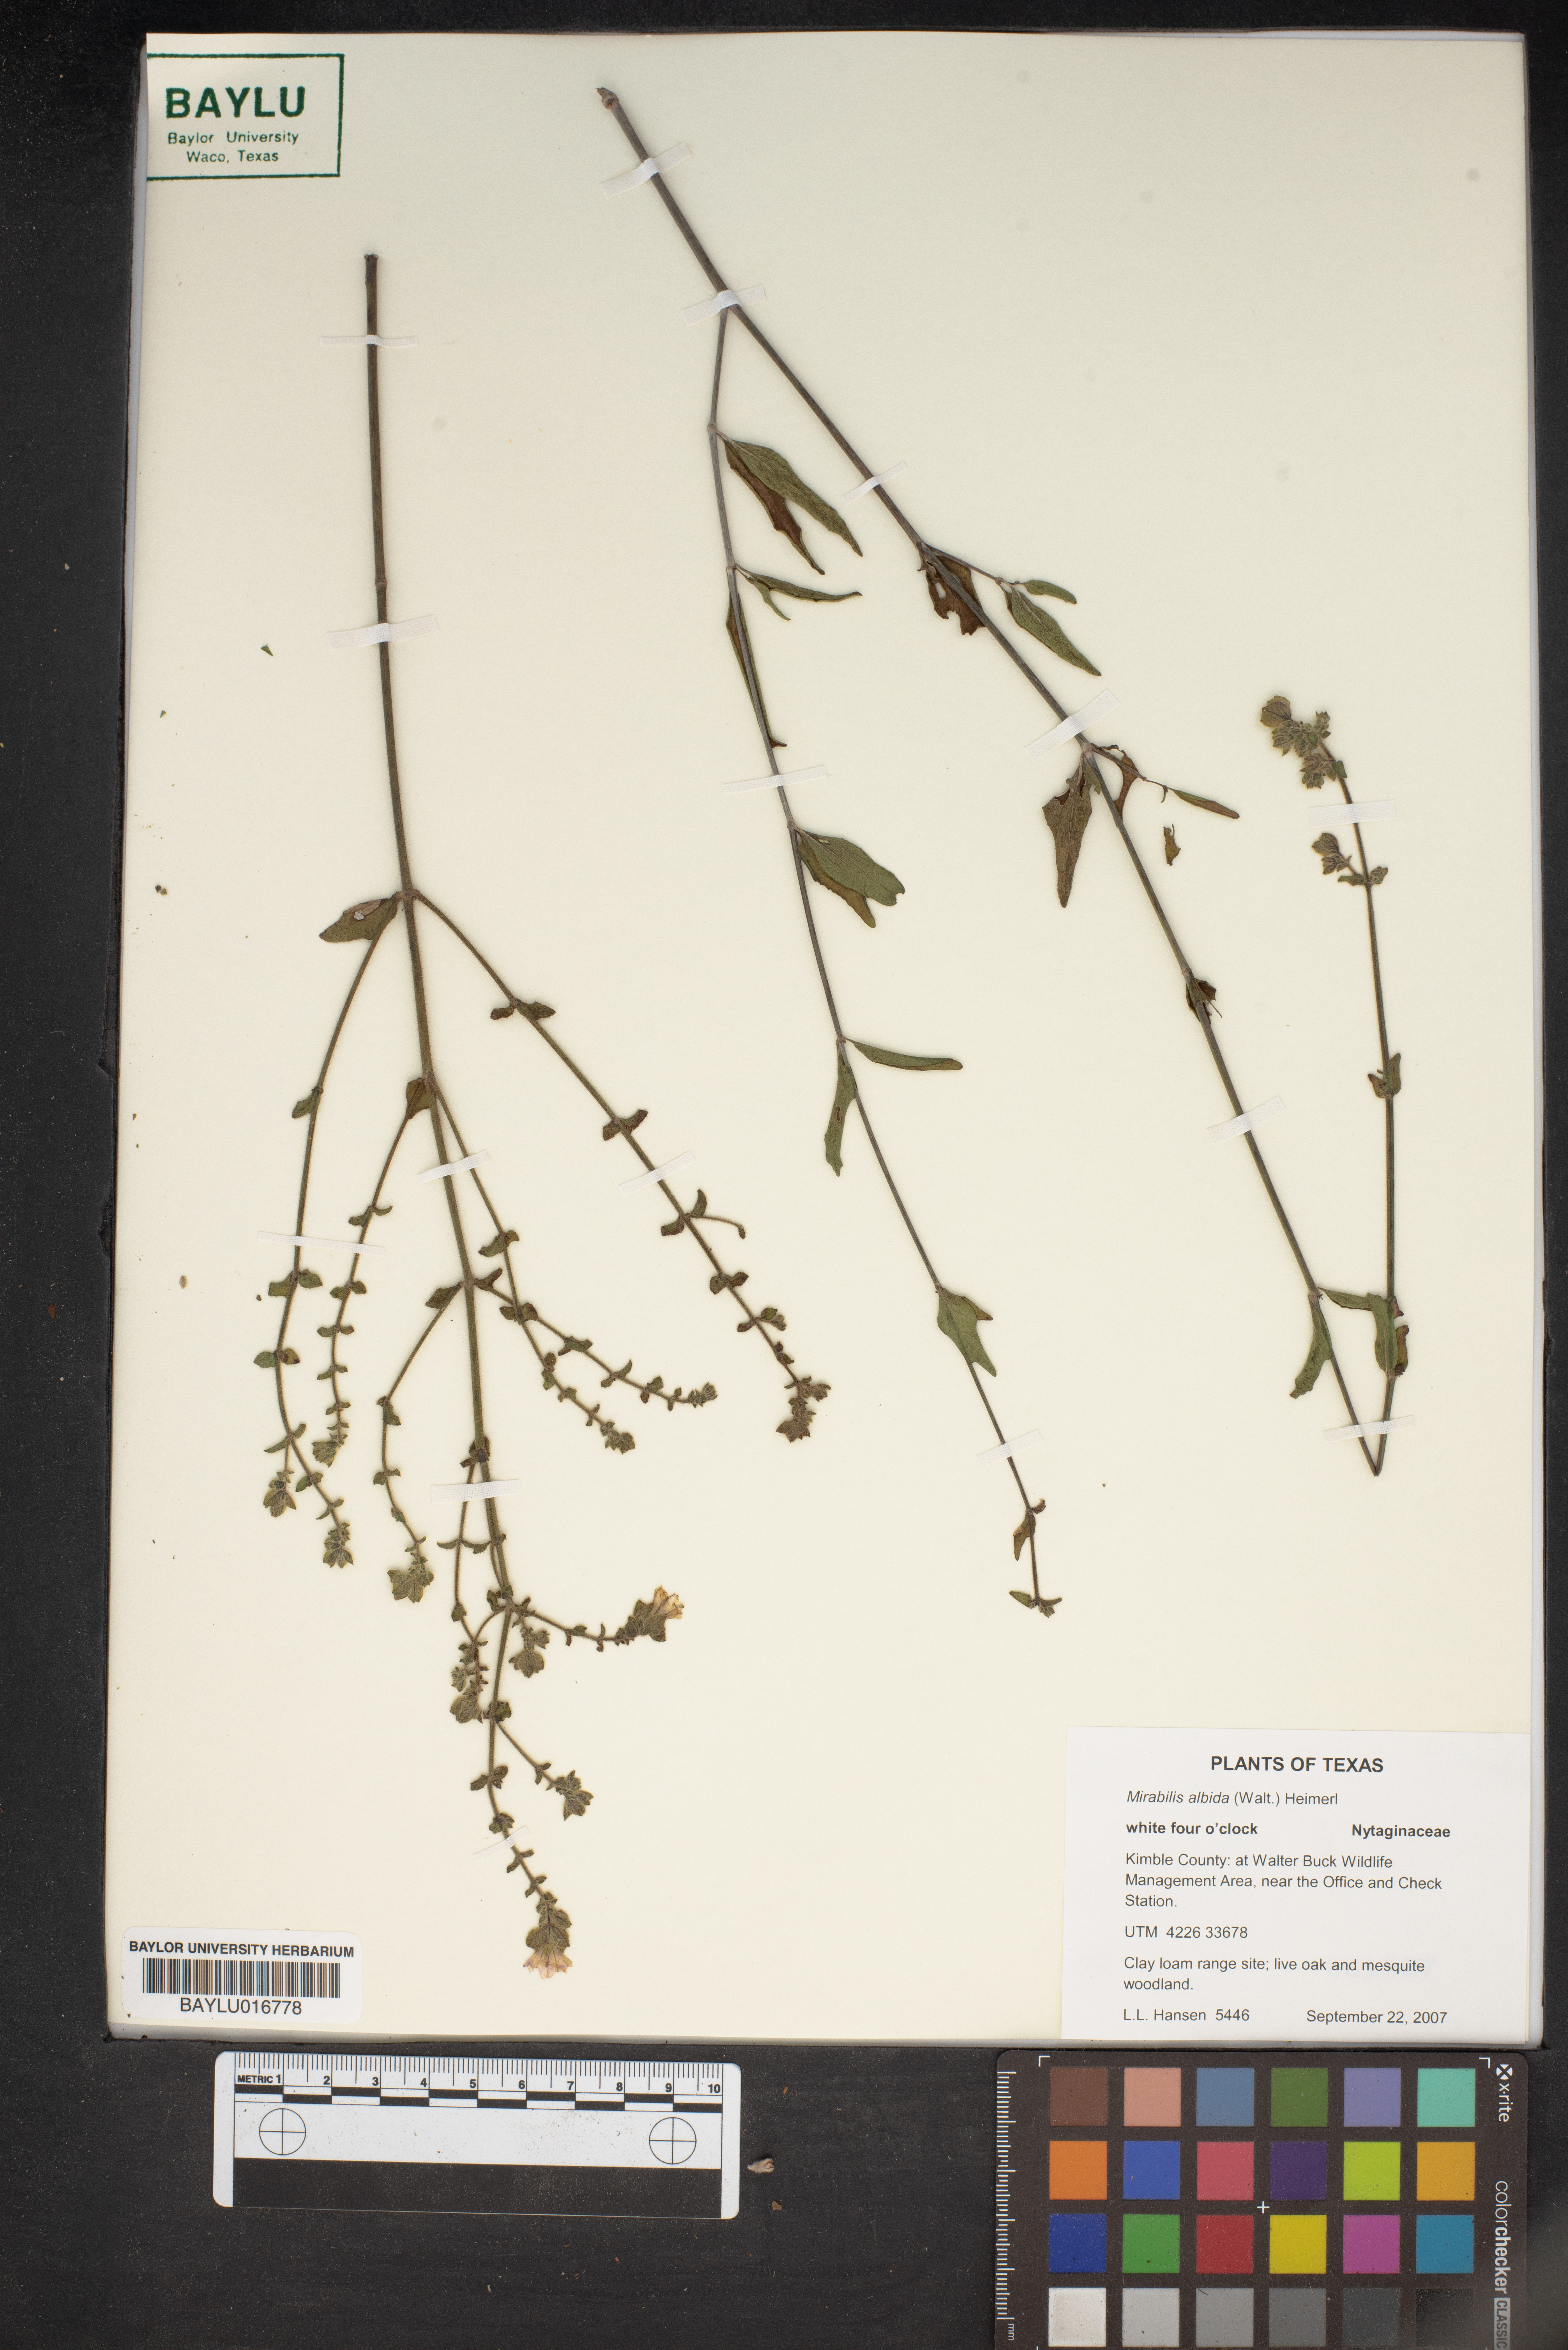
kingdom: Plantae
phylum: Tracheophyta
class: Magnoliopsida
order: Caryophyllales
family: Nyctaginaceae
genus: Mirabilis
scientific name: Mirabilis albida
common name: Hairy four-o'clock
